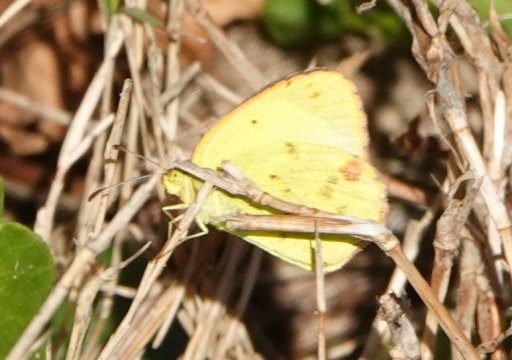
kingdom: Animalia
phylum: Arthropoda
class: Insecta
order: Lepidoptera
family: Pieridae
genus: Pyrisitia
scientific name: Pyrisitia lisa
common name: Little Yellow
